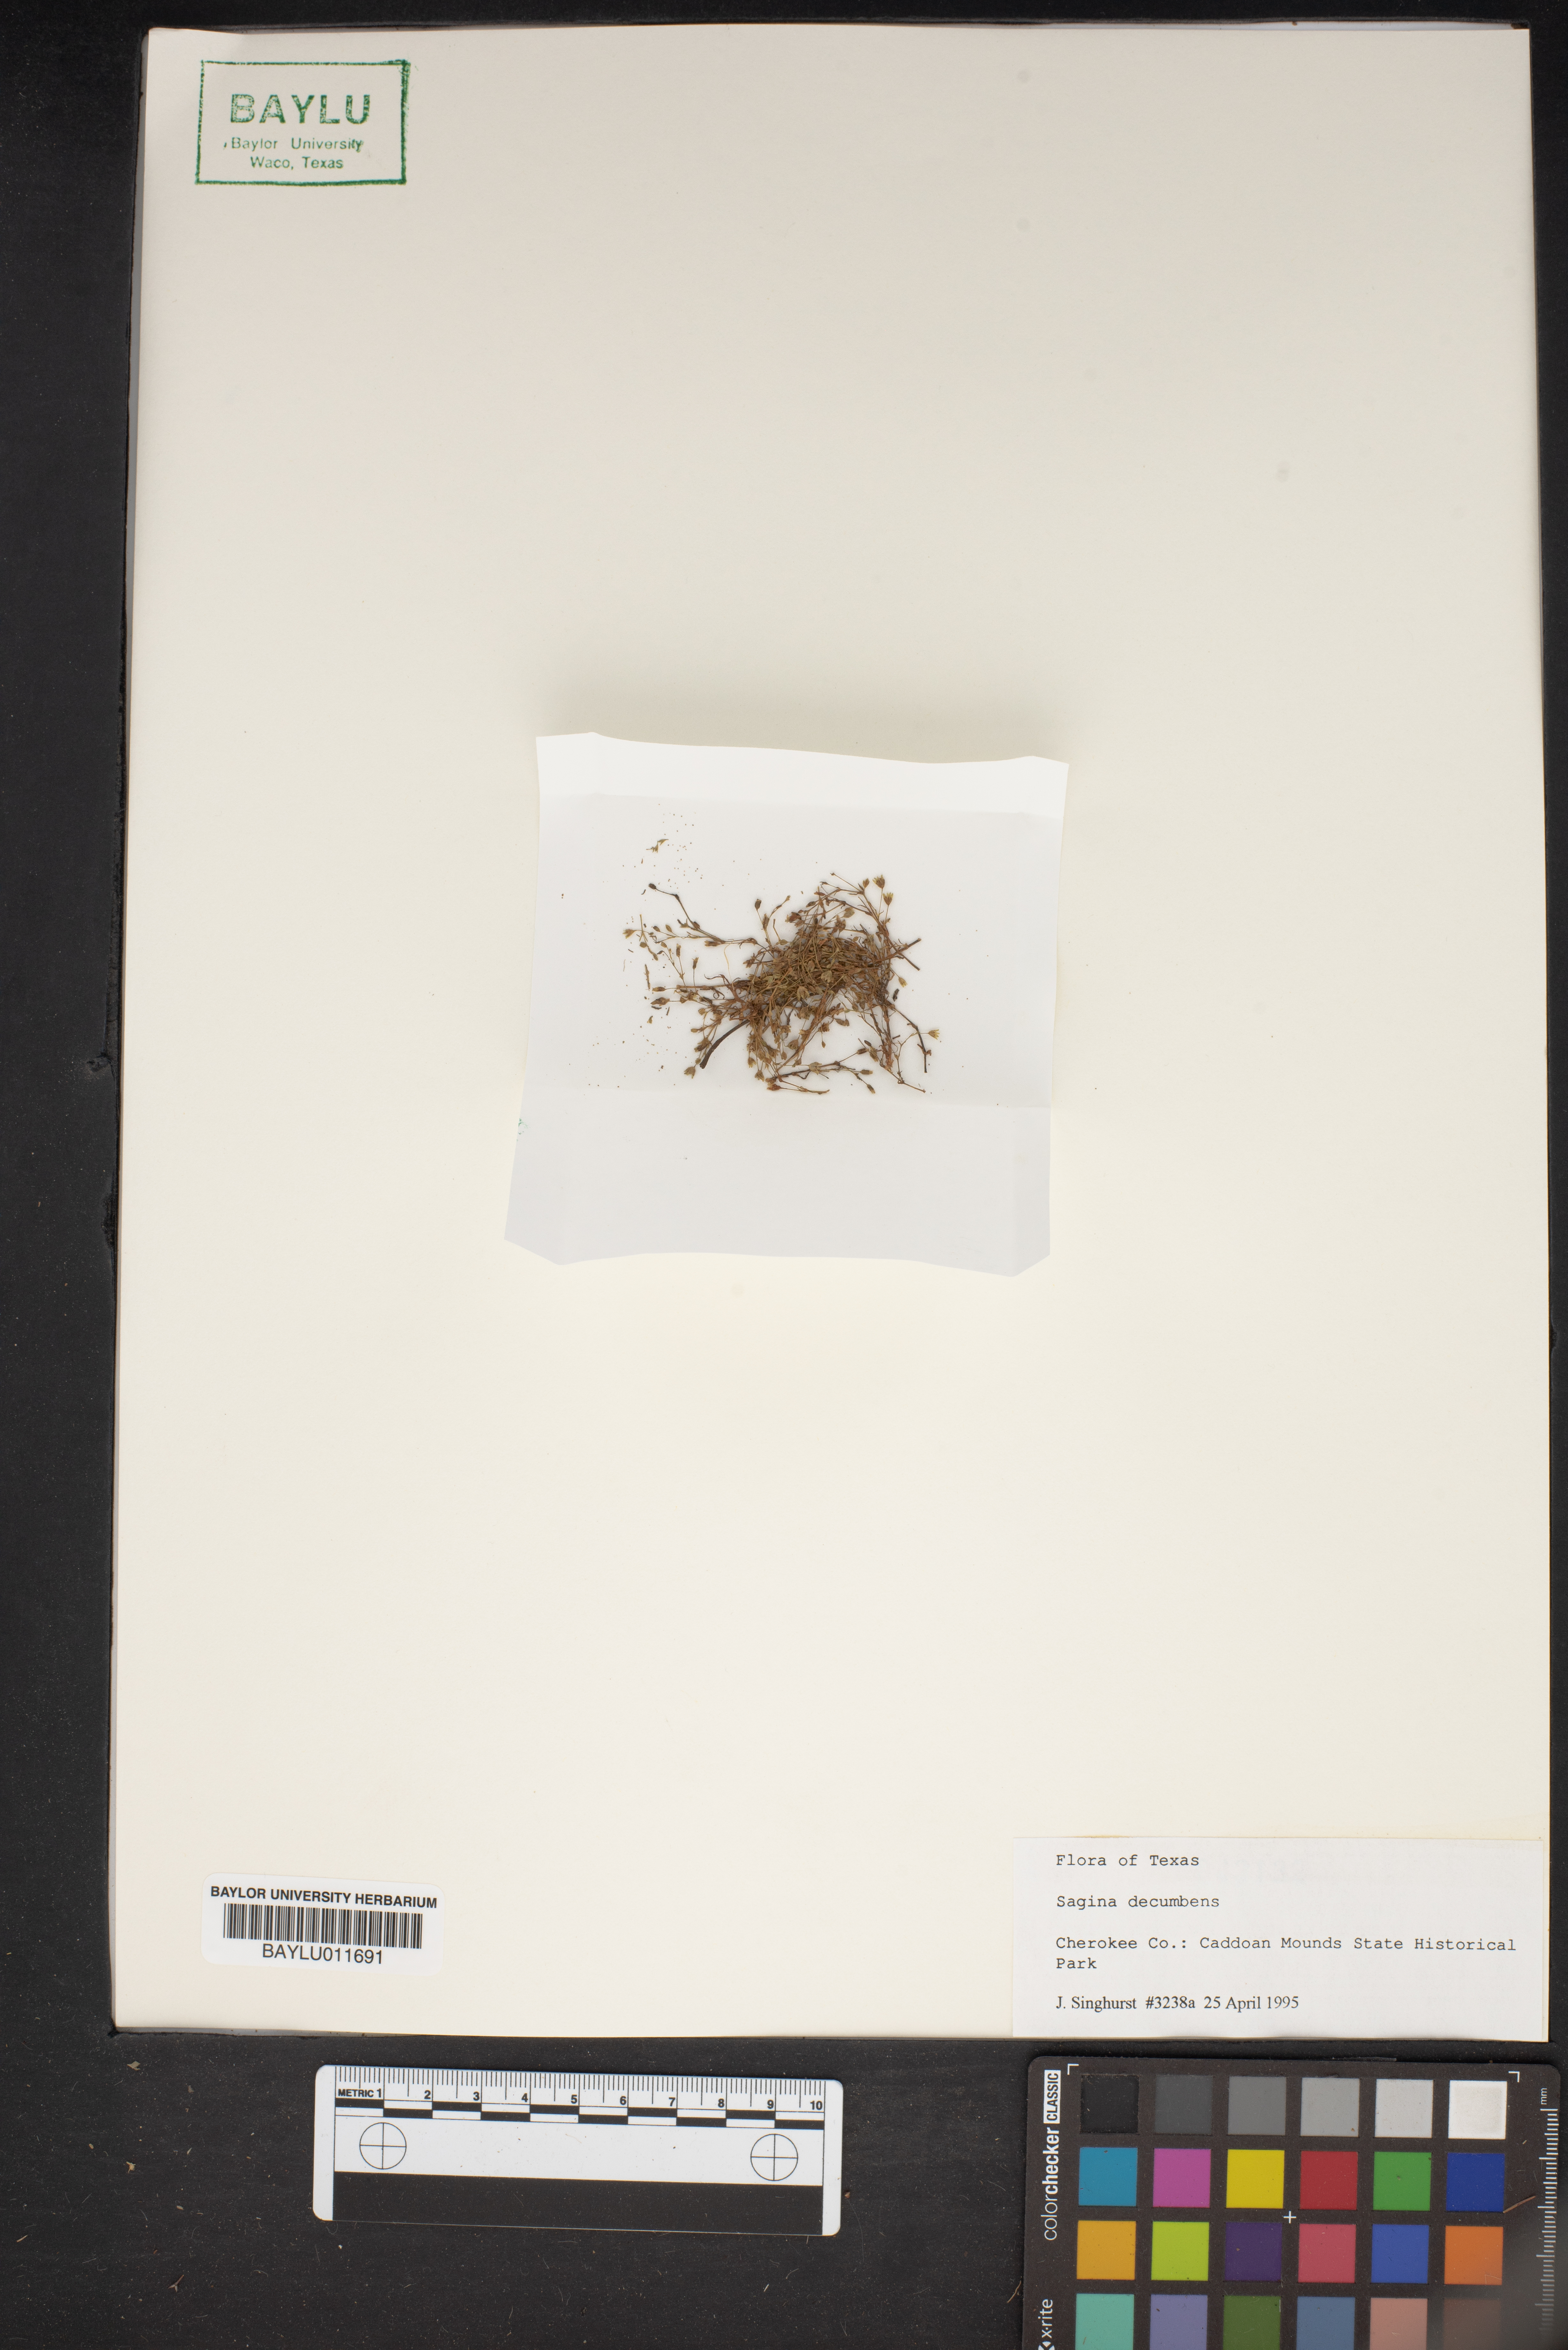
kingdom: Plantae
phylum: Tracheophyta
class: Magnoliopsida
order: Caryophyllales
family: Caryophyllaceae
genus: Sagina
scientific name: Sagina decumbens
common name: Decumbent pearlwort
